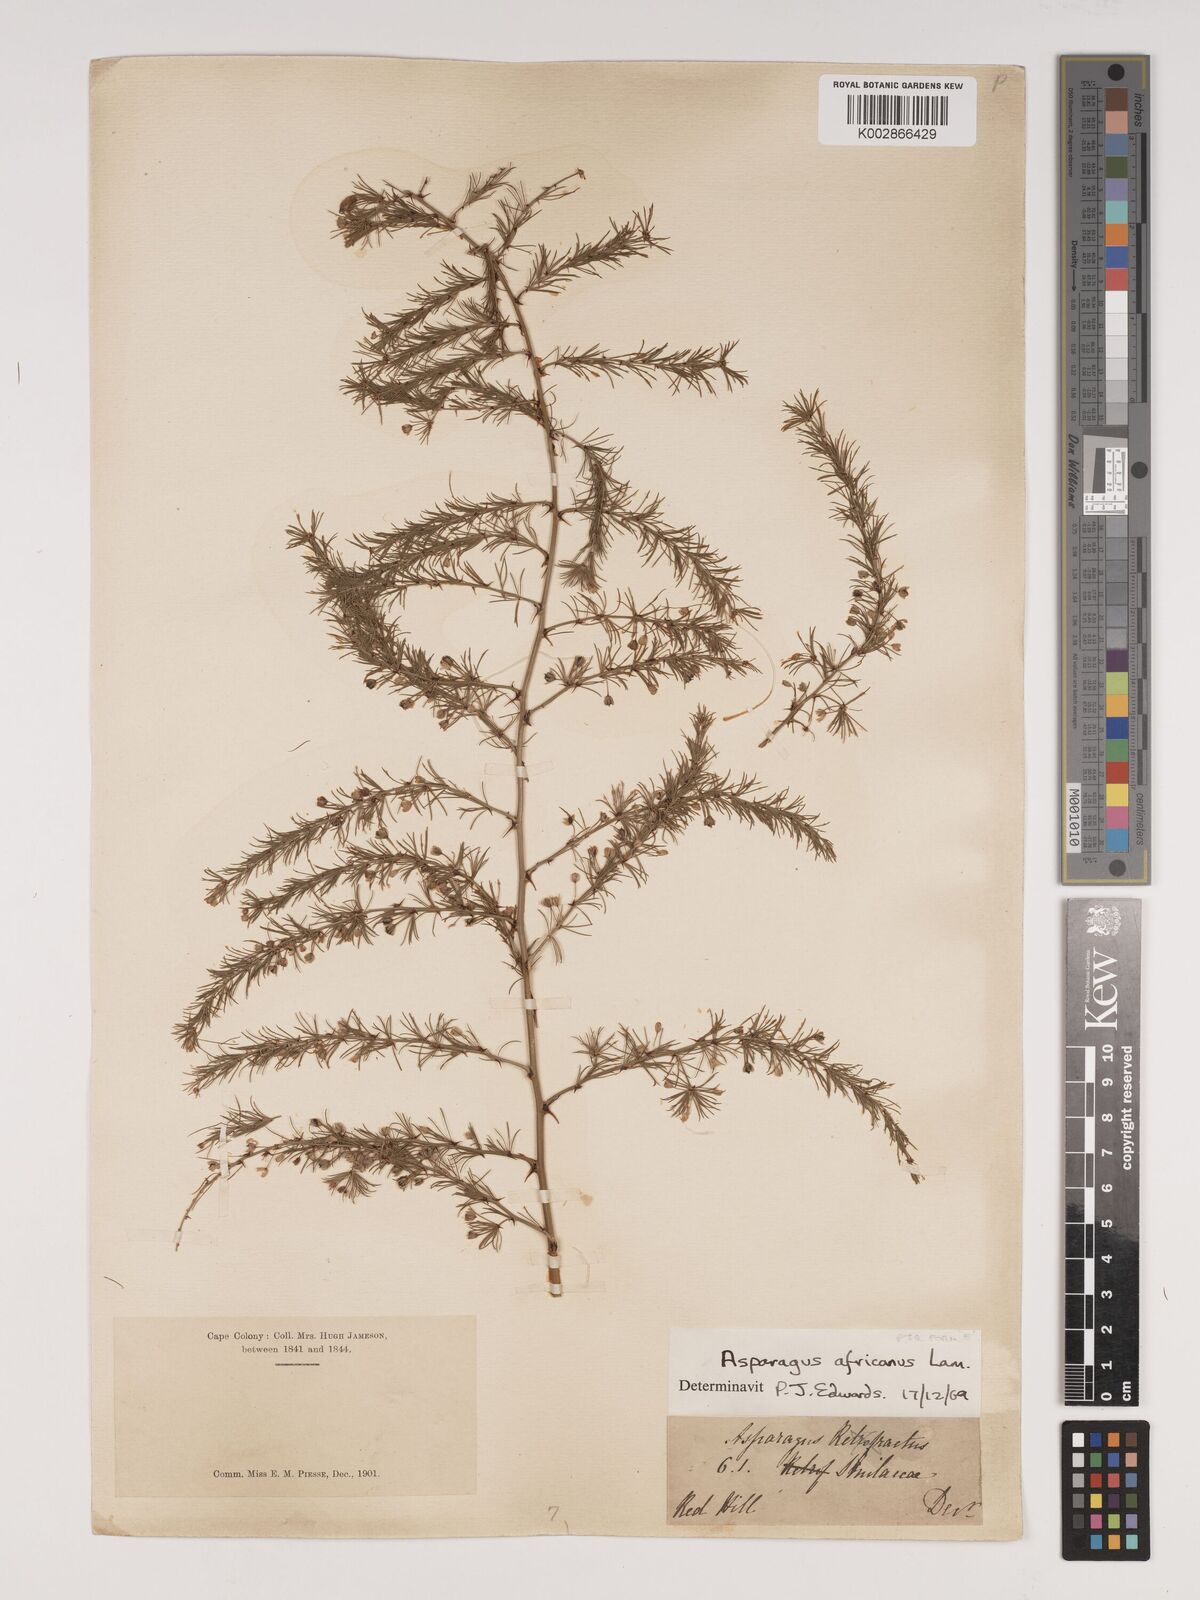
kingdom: Plantae
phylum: Tracheophyta
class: Liliopsida
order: Asparagales
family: Asparagaceae
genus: Asparagus
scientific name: Asparagus africanus
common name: Asparagus-fern
